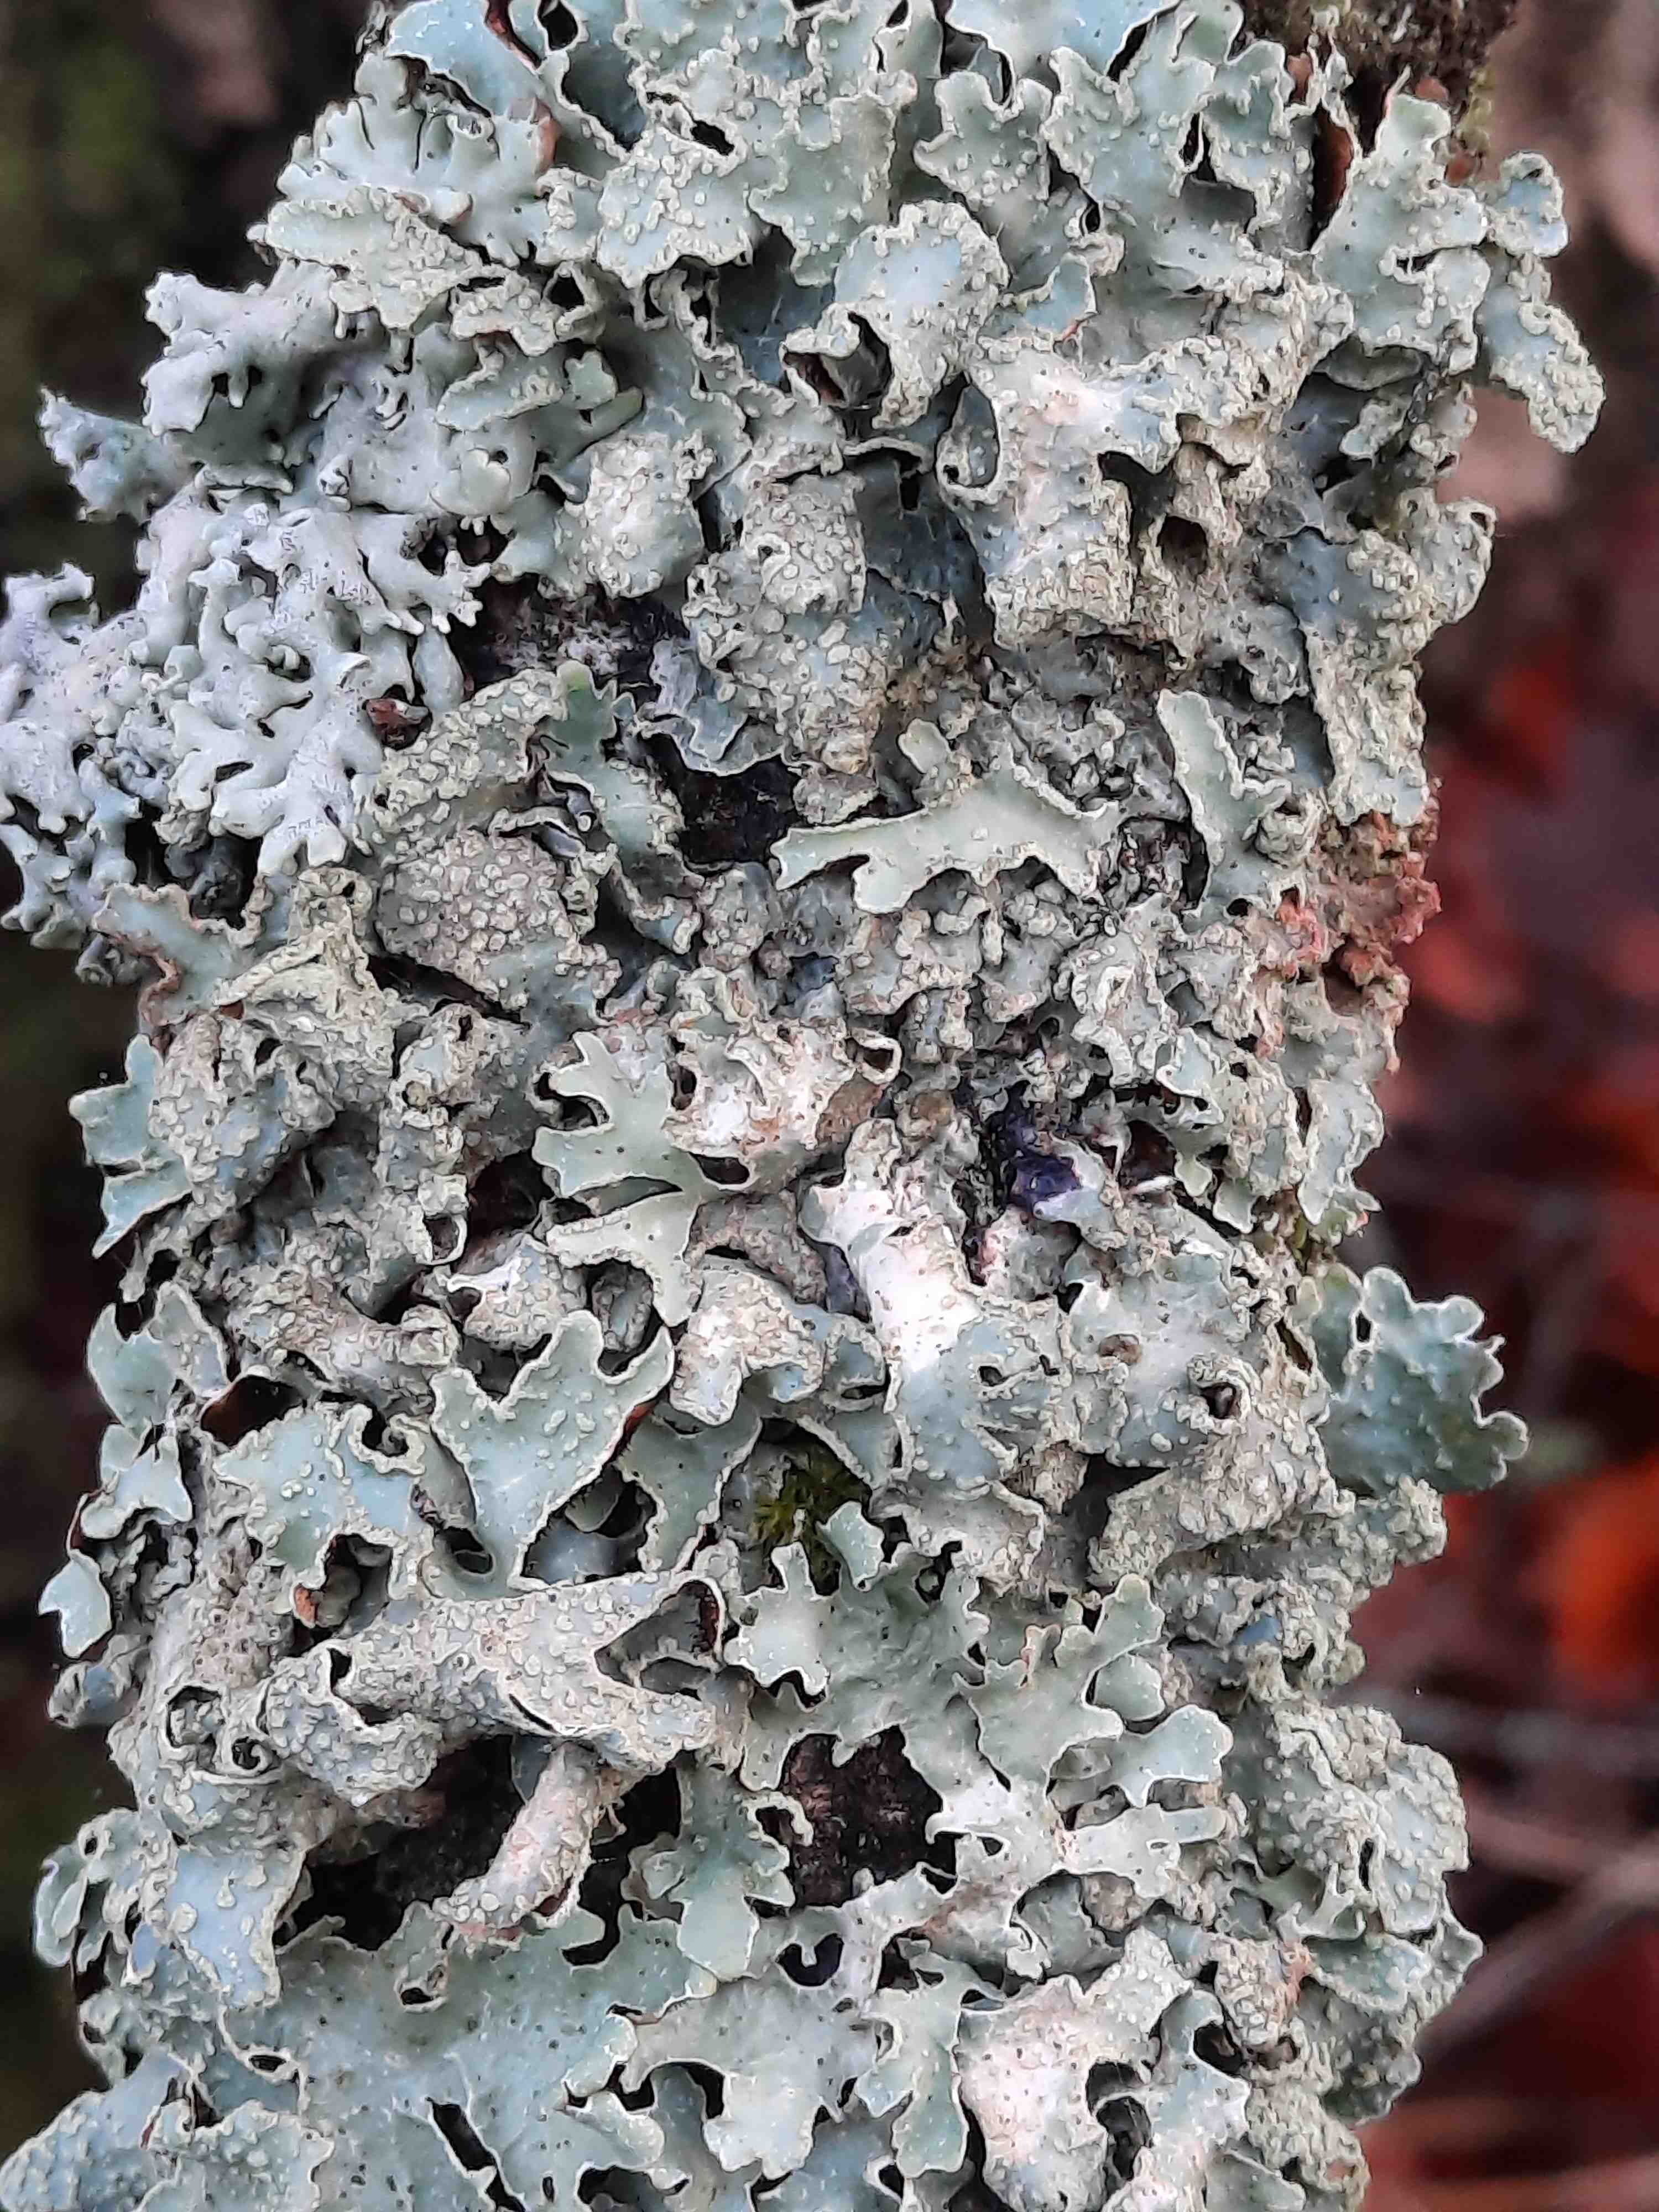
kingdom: Fungi
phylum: Ascomycota
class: Lecanoromycetes
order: Lecanorales
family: Parmeliaceae
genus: Parmelia
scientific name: Parmelia sulcata
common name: rynket skållav
